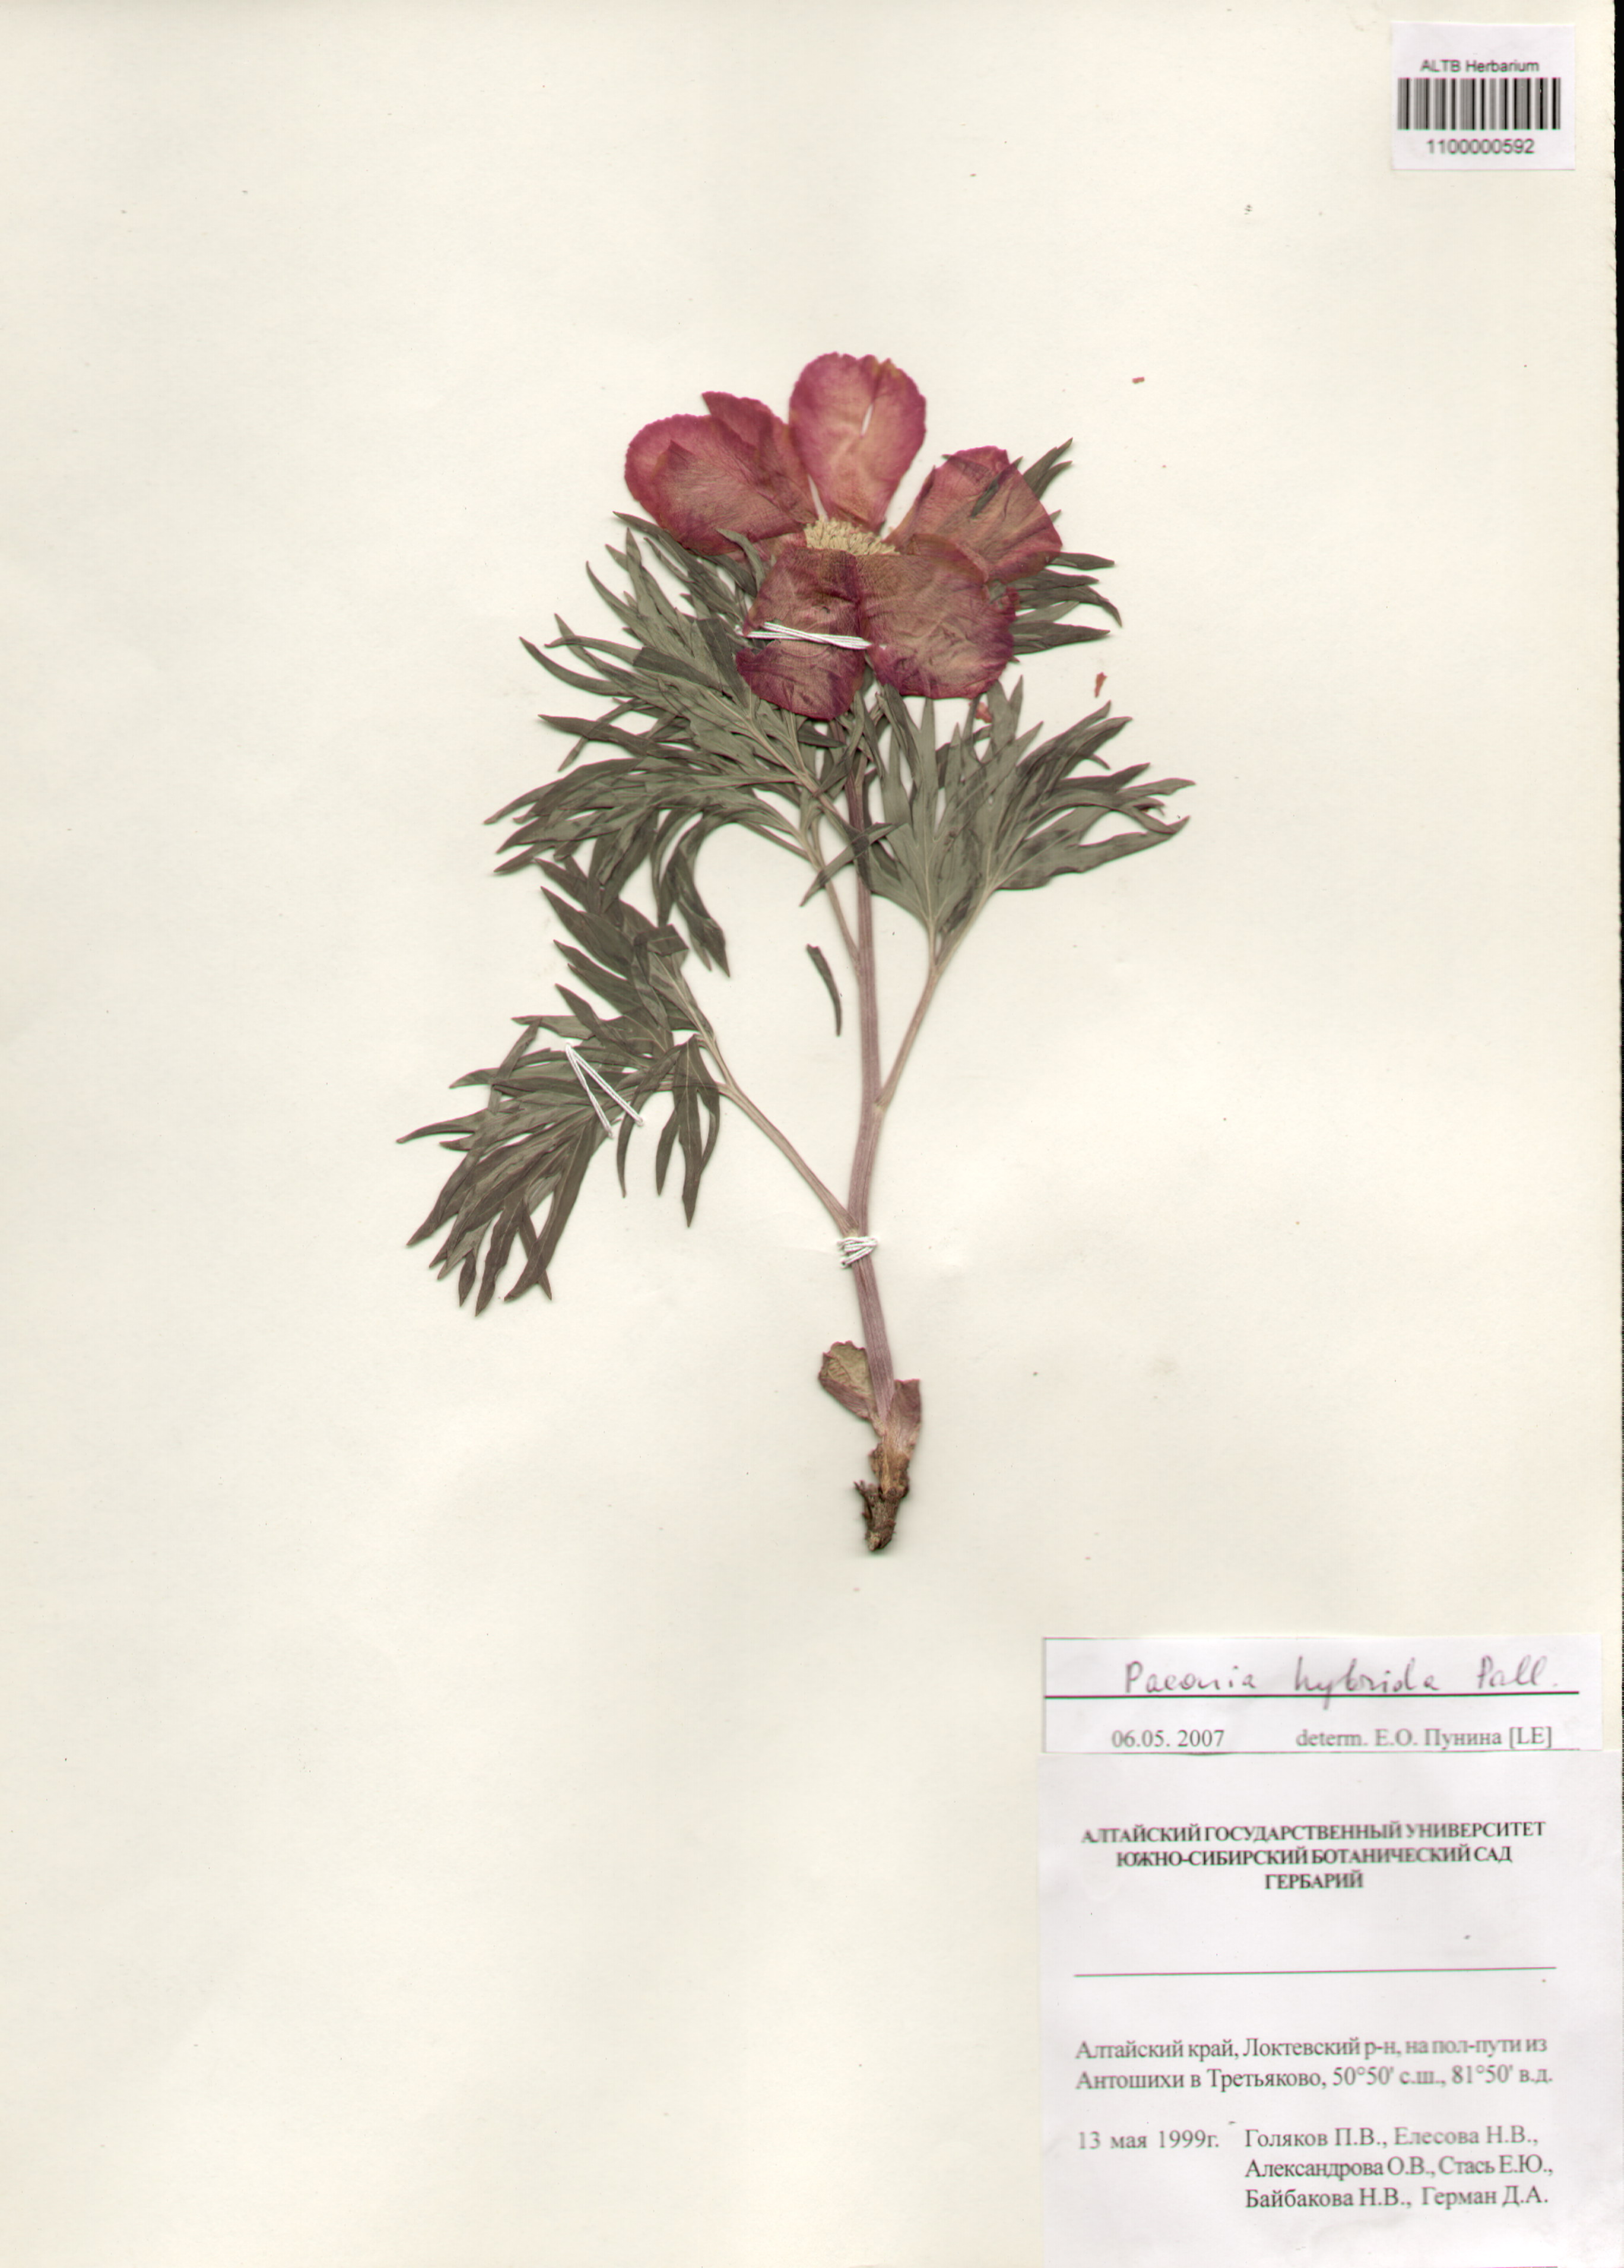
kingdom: Plantae
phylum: Tracheophyta
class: Magnoliopsida
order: Saxifragales
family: Paeoniaceae
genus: Paeonia
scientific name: Paeonia
